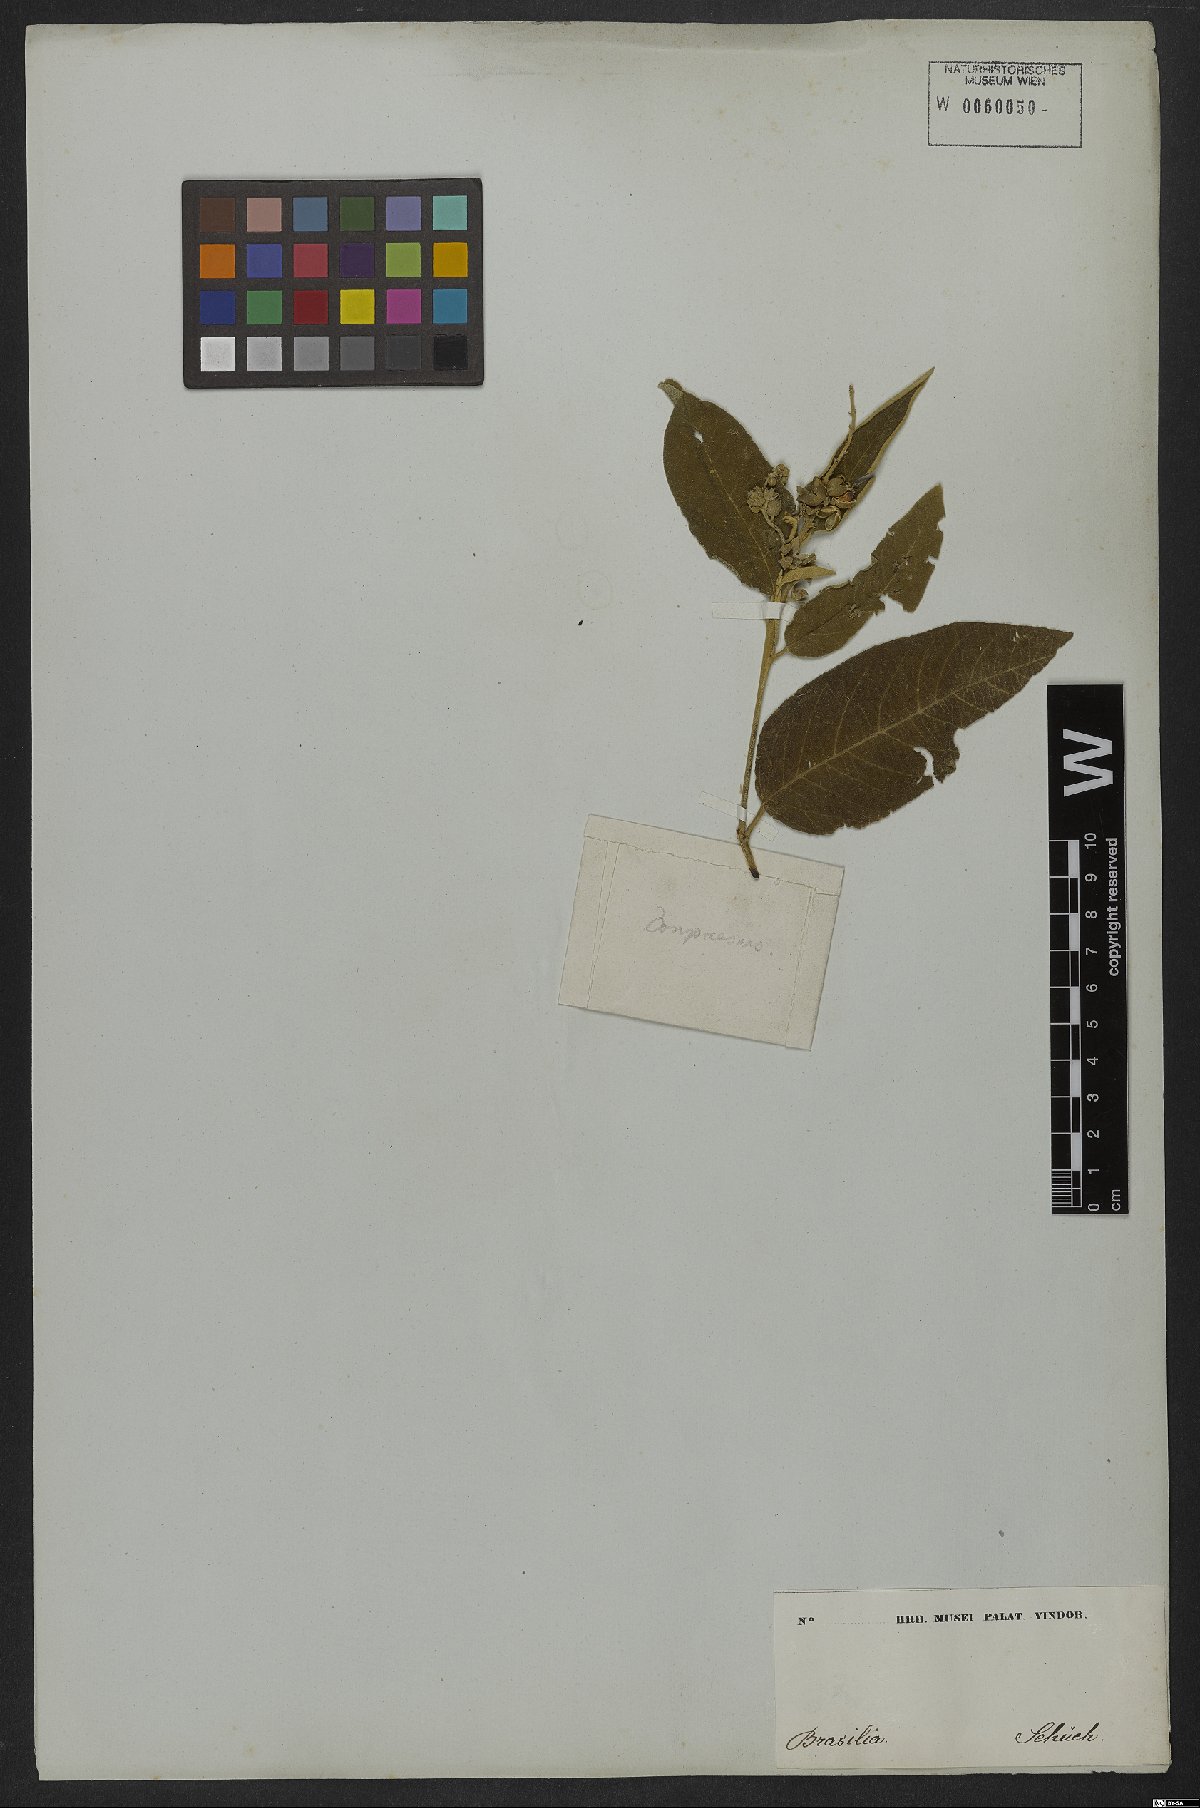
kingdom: Plantae
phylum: Tracheophyta
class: Magnoliopsida
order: Malpighiales
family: Euphorbiaceae
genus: Croton
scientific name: Croton compressus
